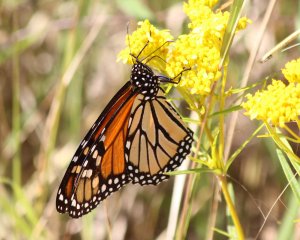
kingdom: Animalia
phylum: Arthropoda
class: Insecta
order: Lepidoptera
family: Nymphalidae
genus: Danaus
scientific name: Danaus plexippus
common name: Monarch
